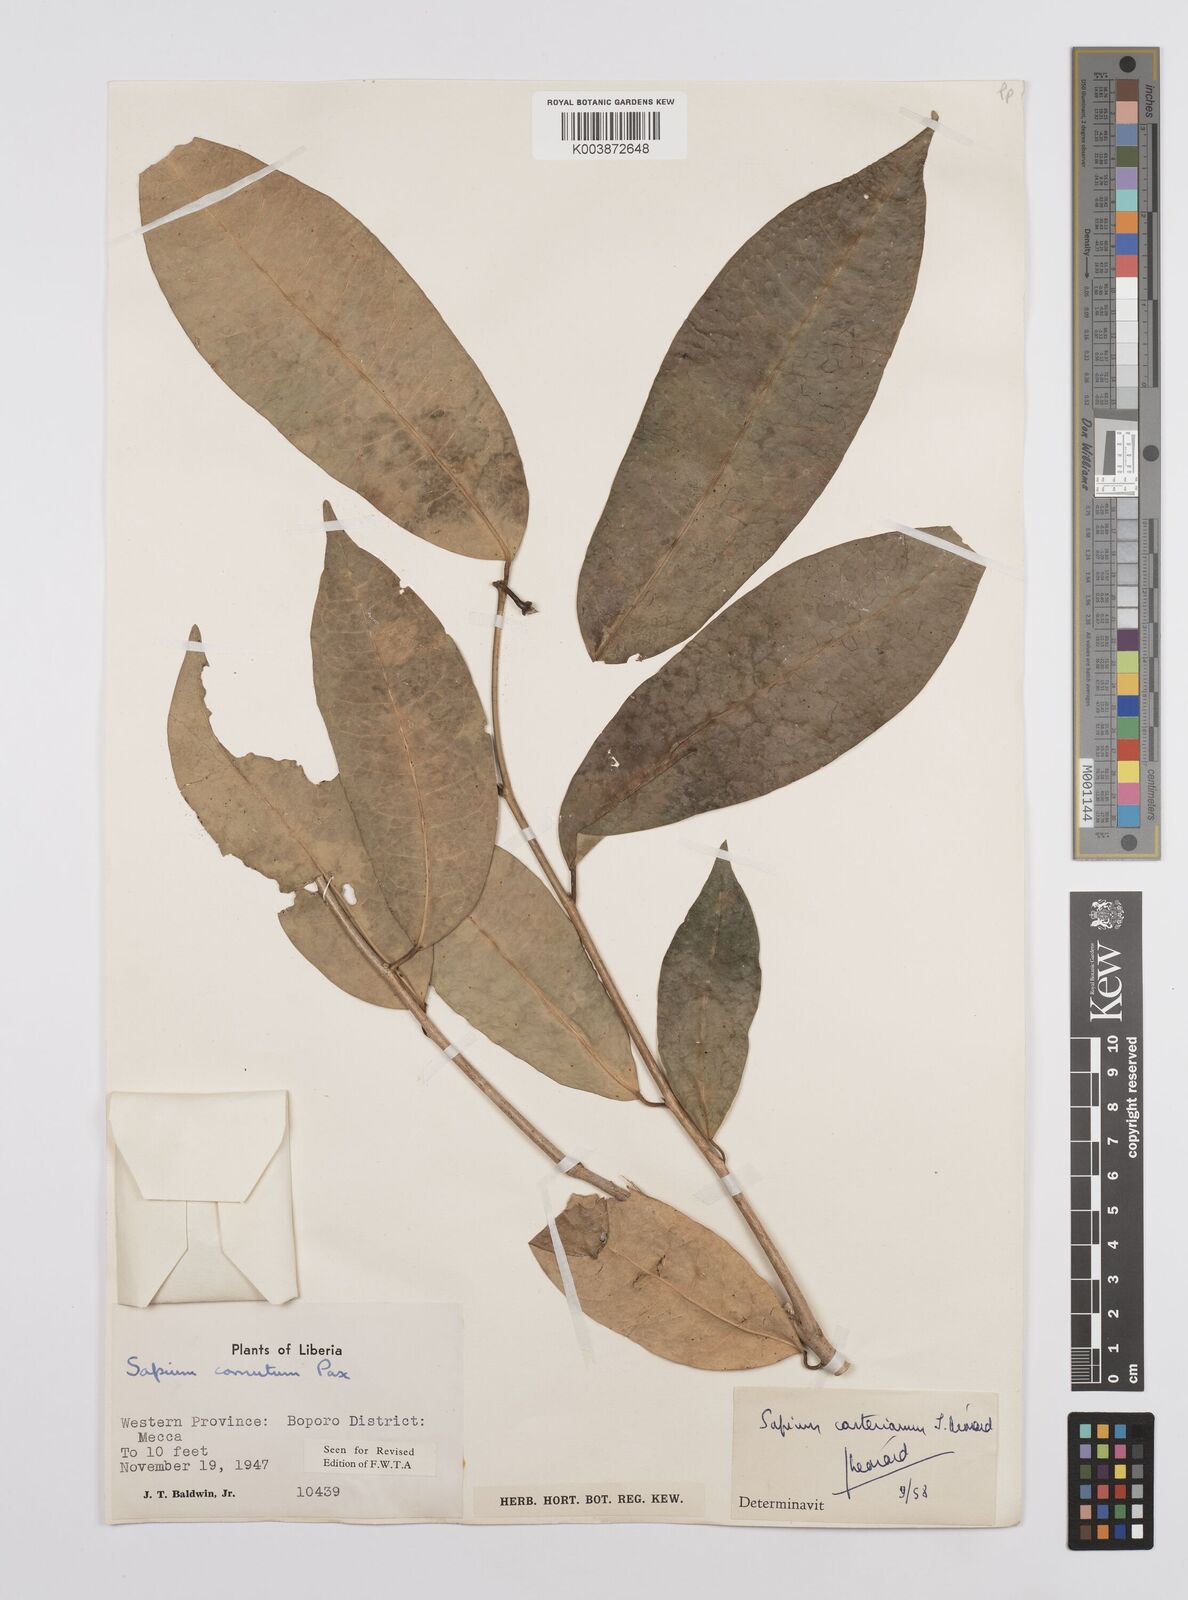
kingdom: Plantae
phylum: Tracheophyta
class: Magnoliopsida
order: Malpighiales
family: Euphorbiaceae
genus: Sclerocroton
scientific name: Sclerocroton carterianus
